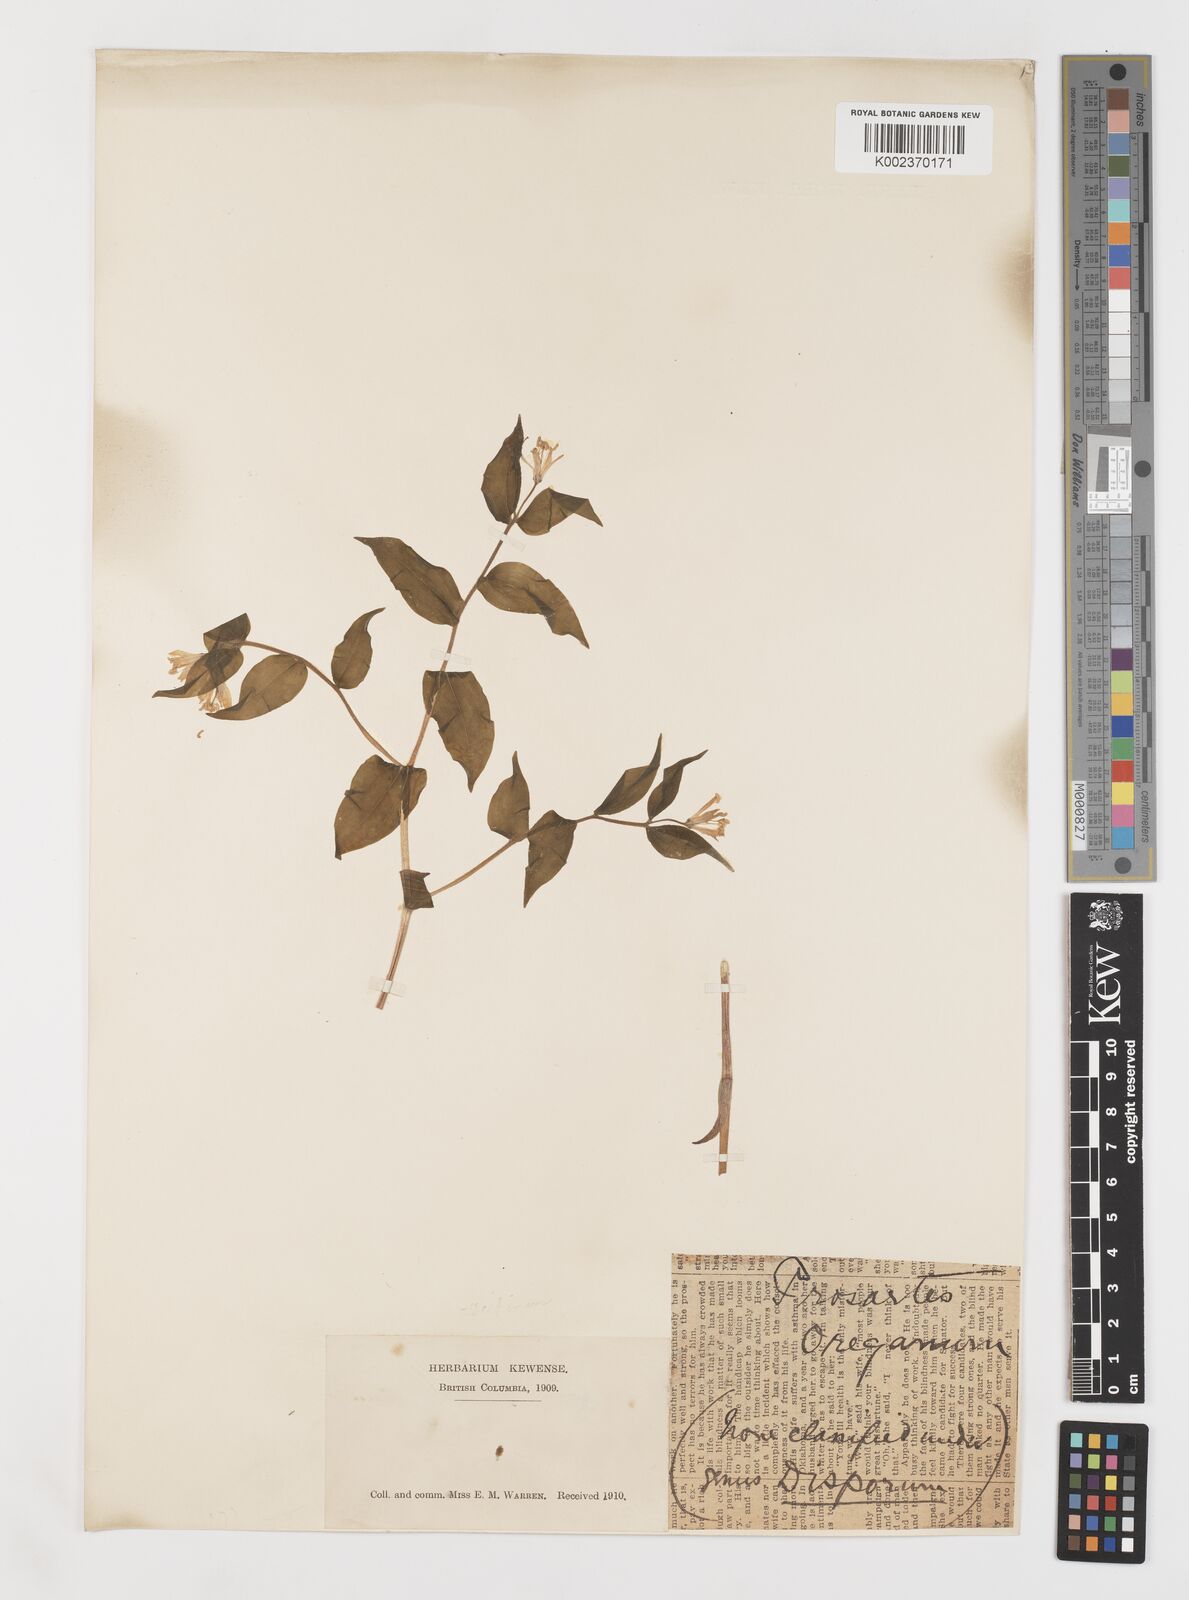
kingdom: Plantae
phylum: Tracheophyta
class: Liliopsida
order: Liliales
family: Liliaceae
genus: Prosartes
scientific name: Prosartes trachycarpa
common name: Rough-fruit fairy-bells
